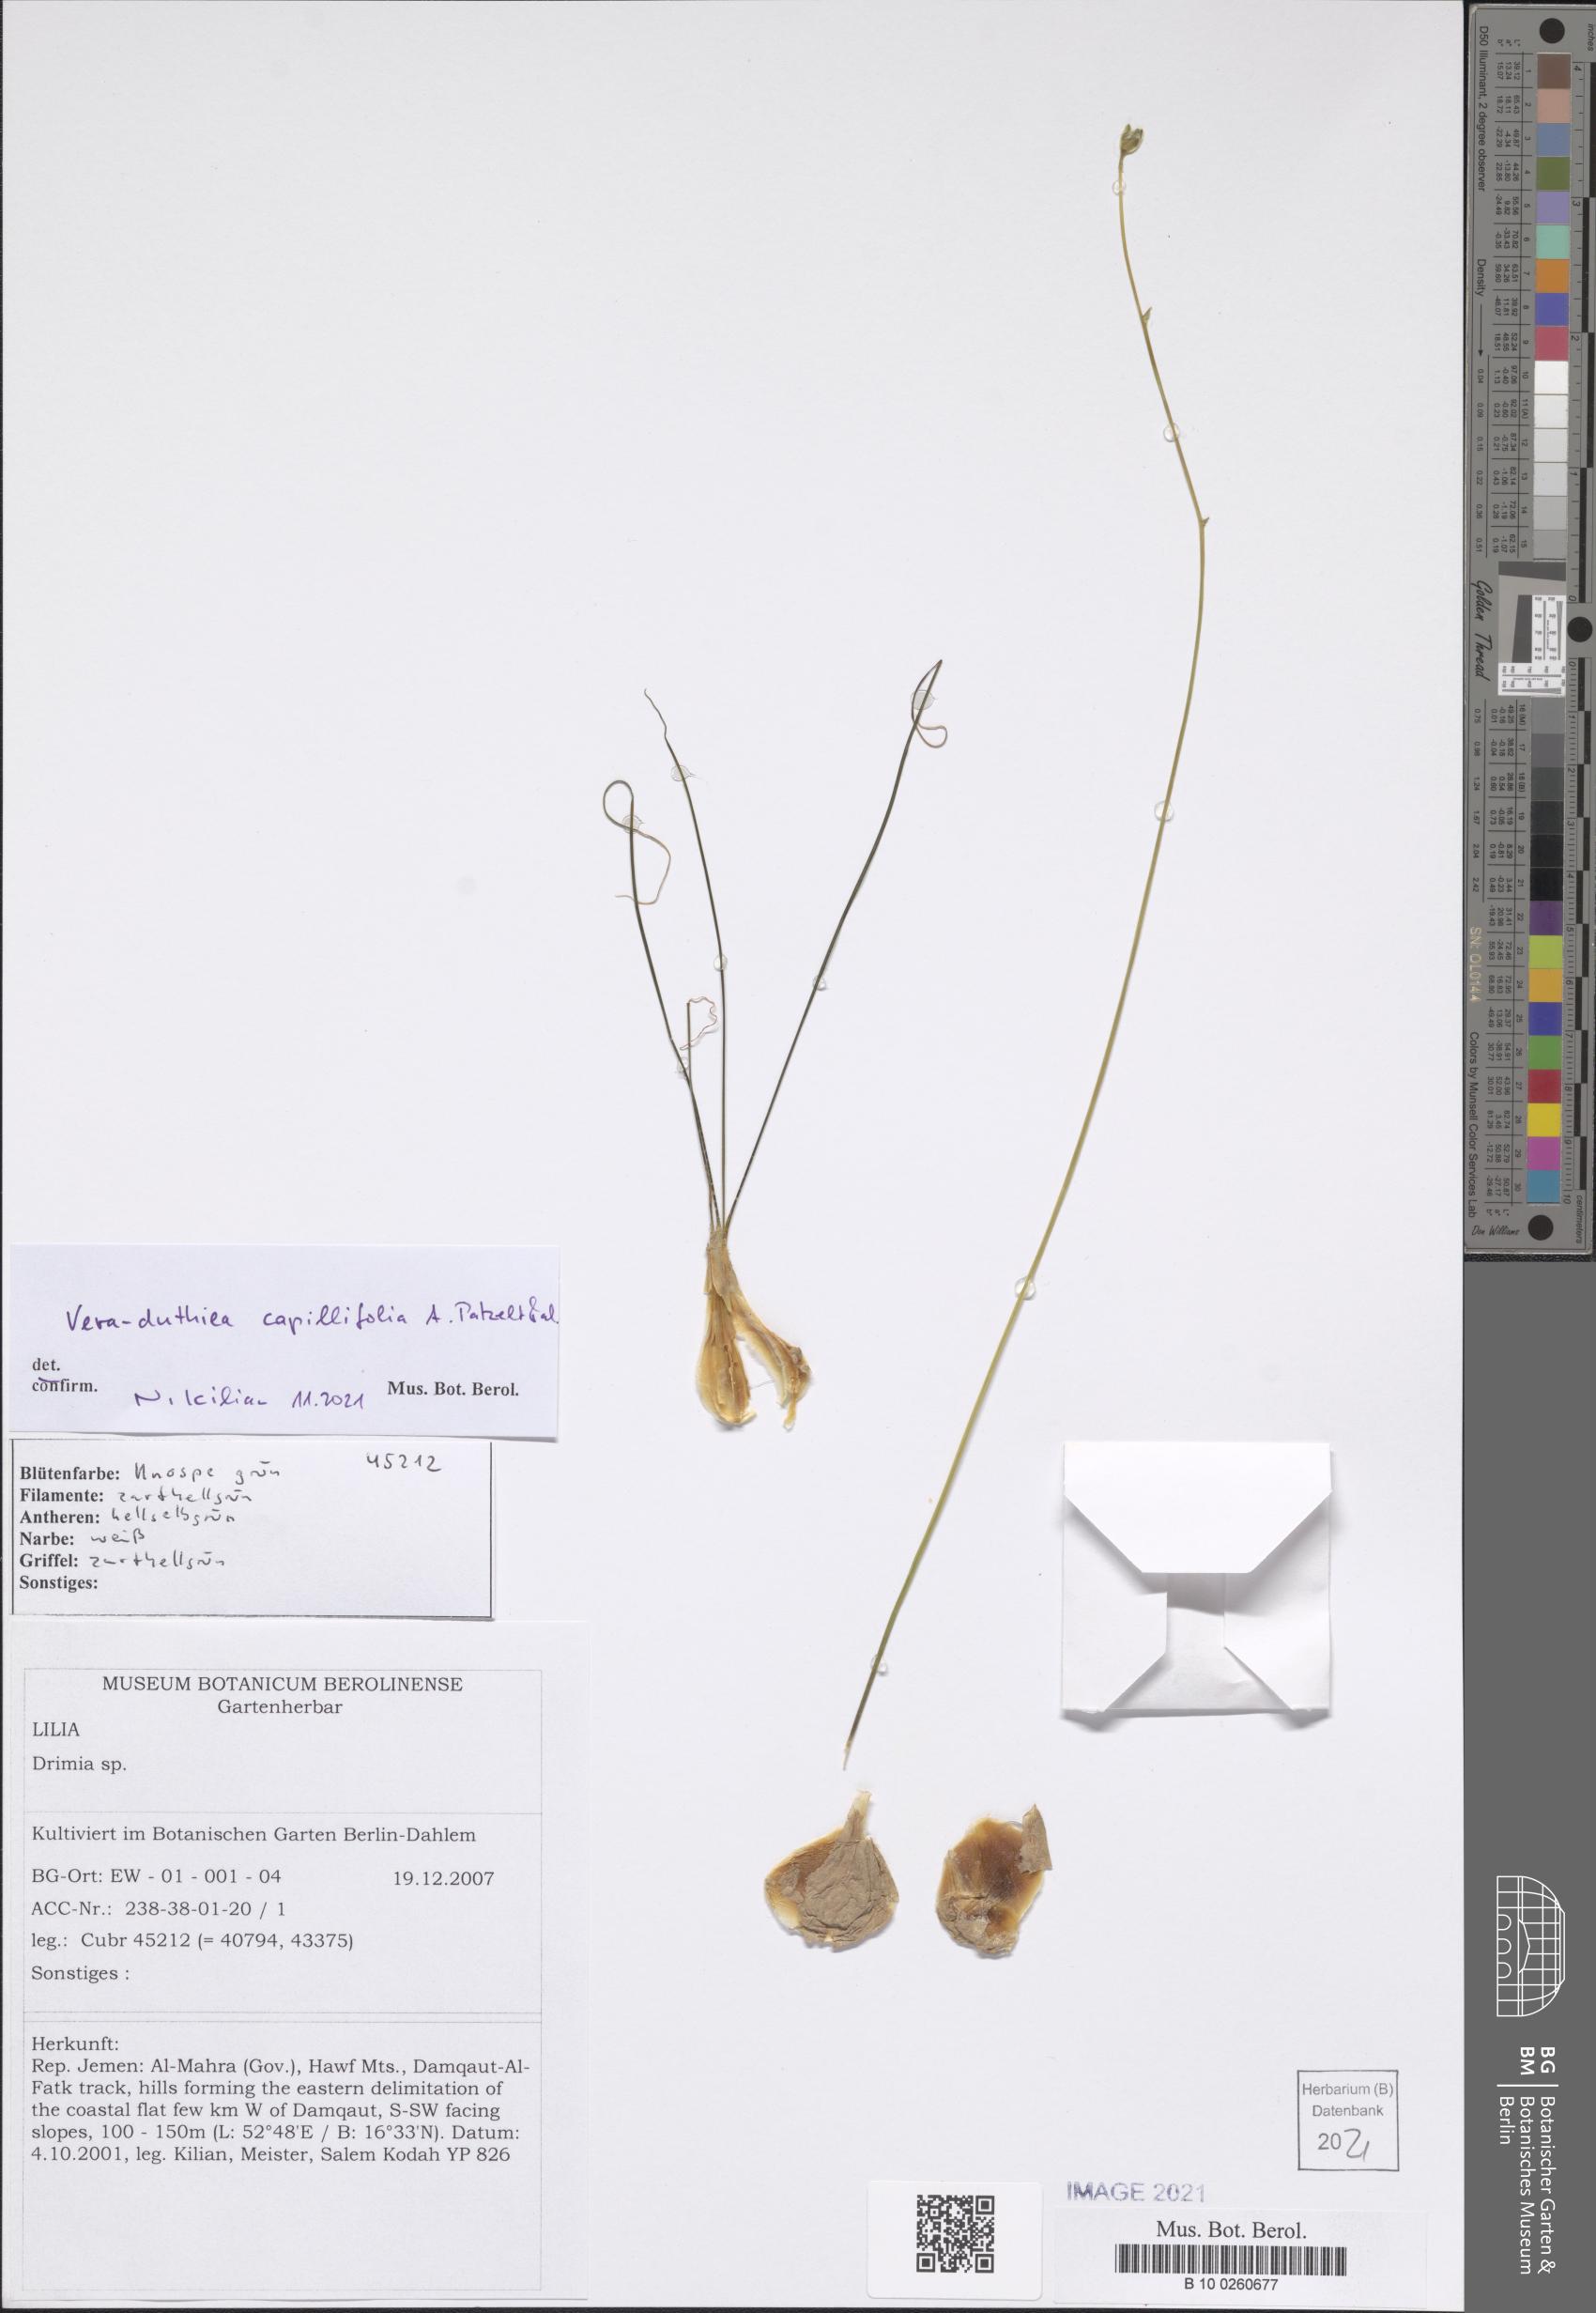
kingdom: Plantae
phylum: Tracheophyta
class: Liliopsida
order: Asparagales
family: Asparagaceae
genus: Drimia
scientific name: Drimia Vera-duthiea capillifolia
